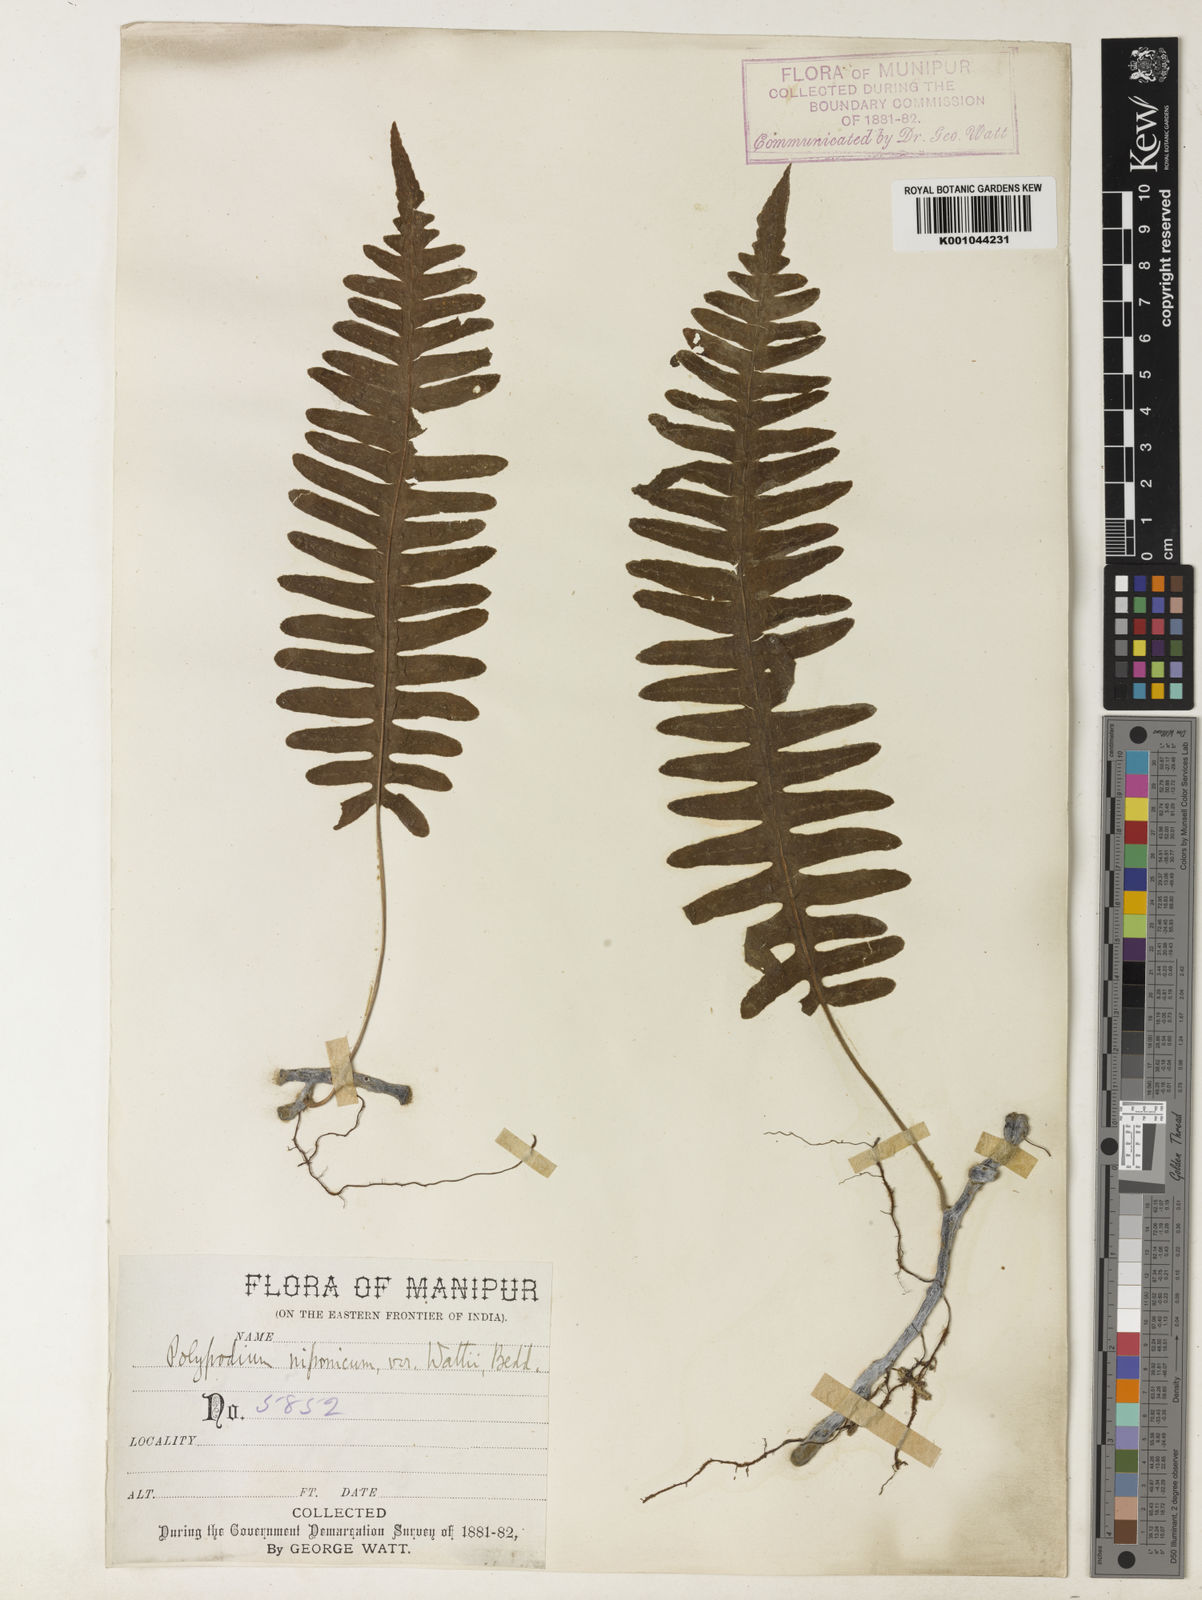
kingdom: Plantae
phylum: Tracheophyta
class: Polypodiopsida
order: Polypodiales
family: Polypodiaceae
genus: Goniophlebium
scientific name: Goniophlebium wattii
